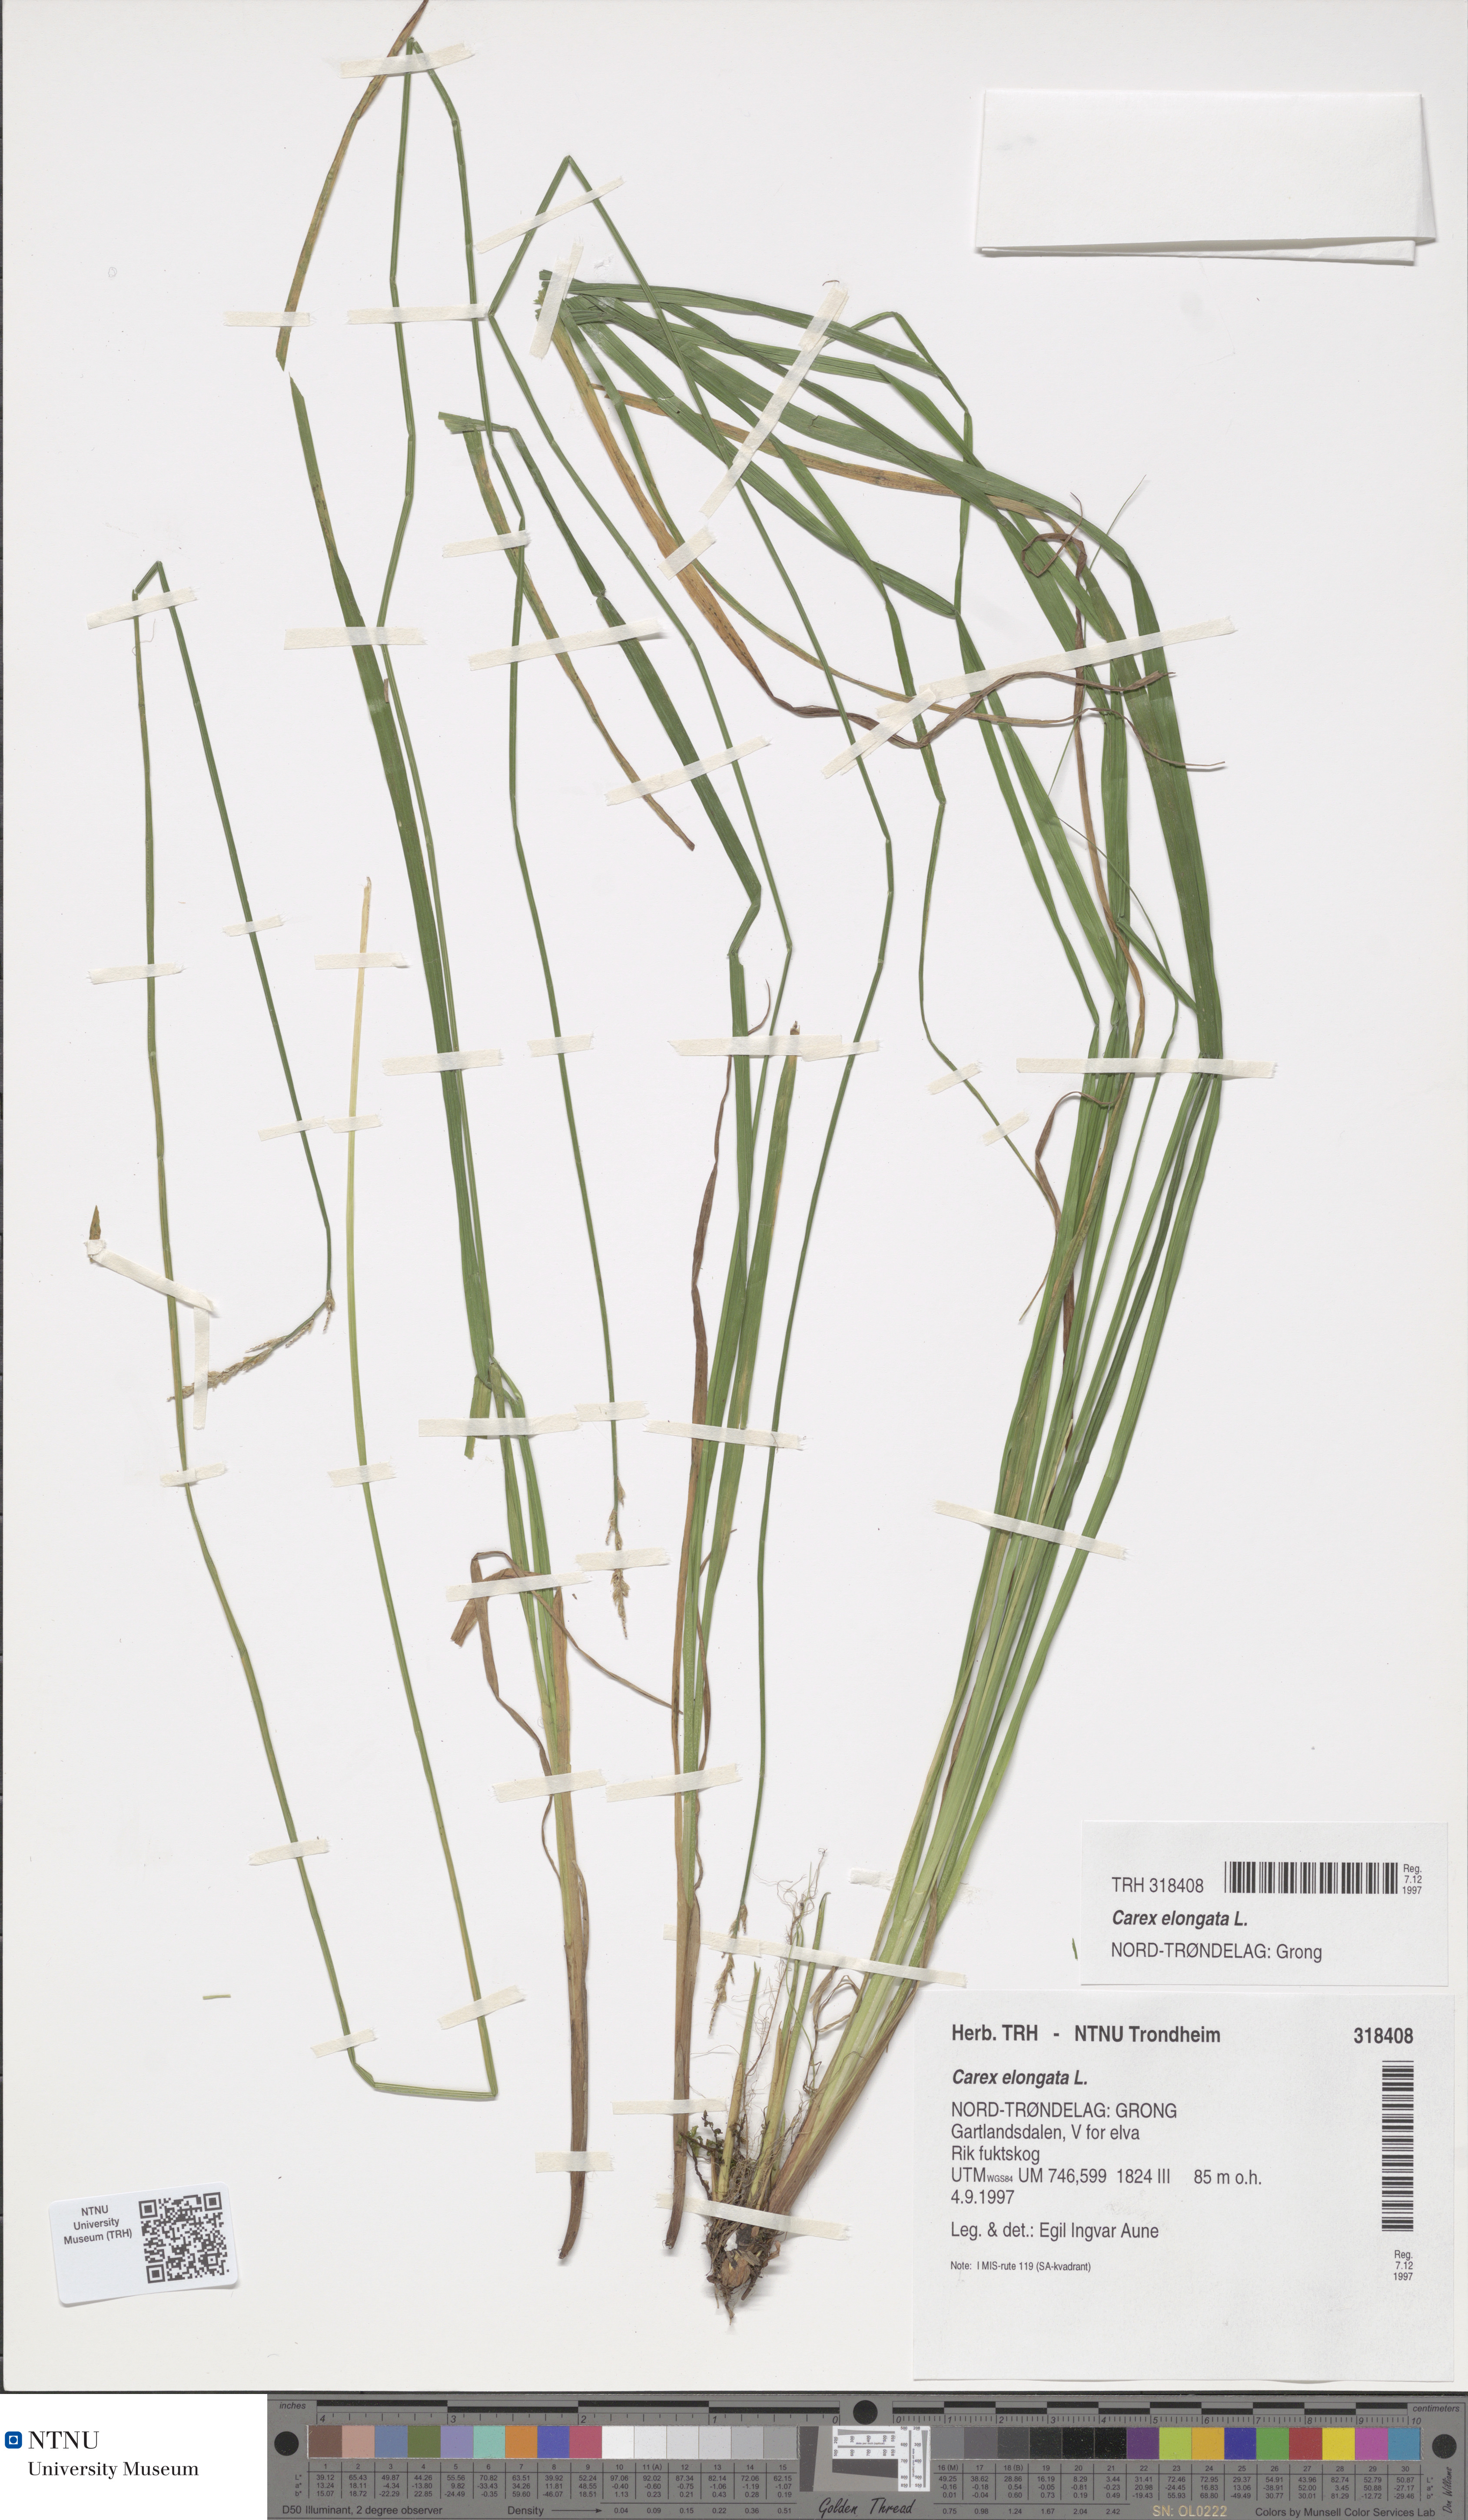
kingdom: Plantae
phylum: Tracheophyta
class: Liliopsida
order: Poales
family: Cyperaceae
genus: Carex
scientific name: Carex elongata
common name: Elongated sedge
